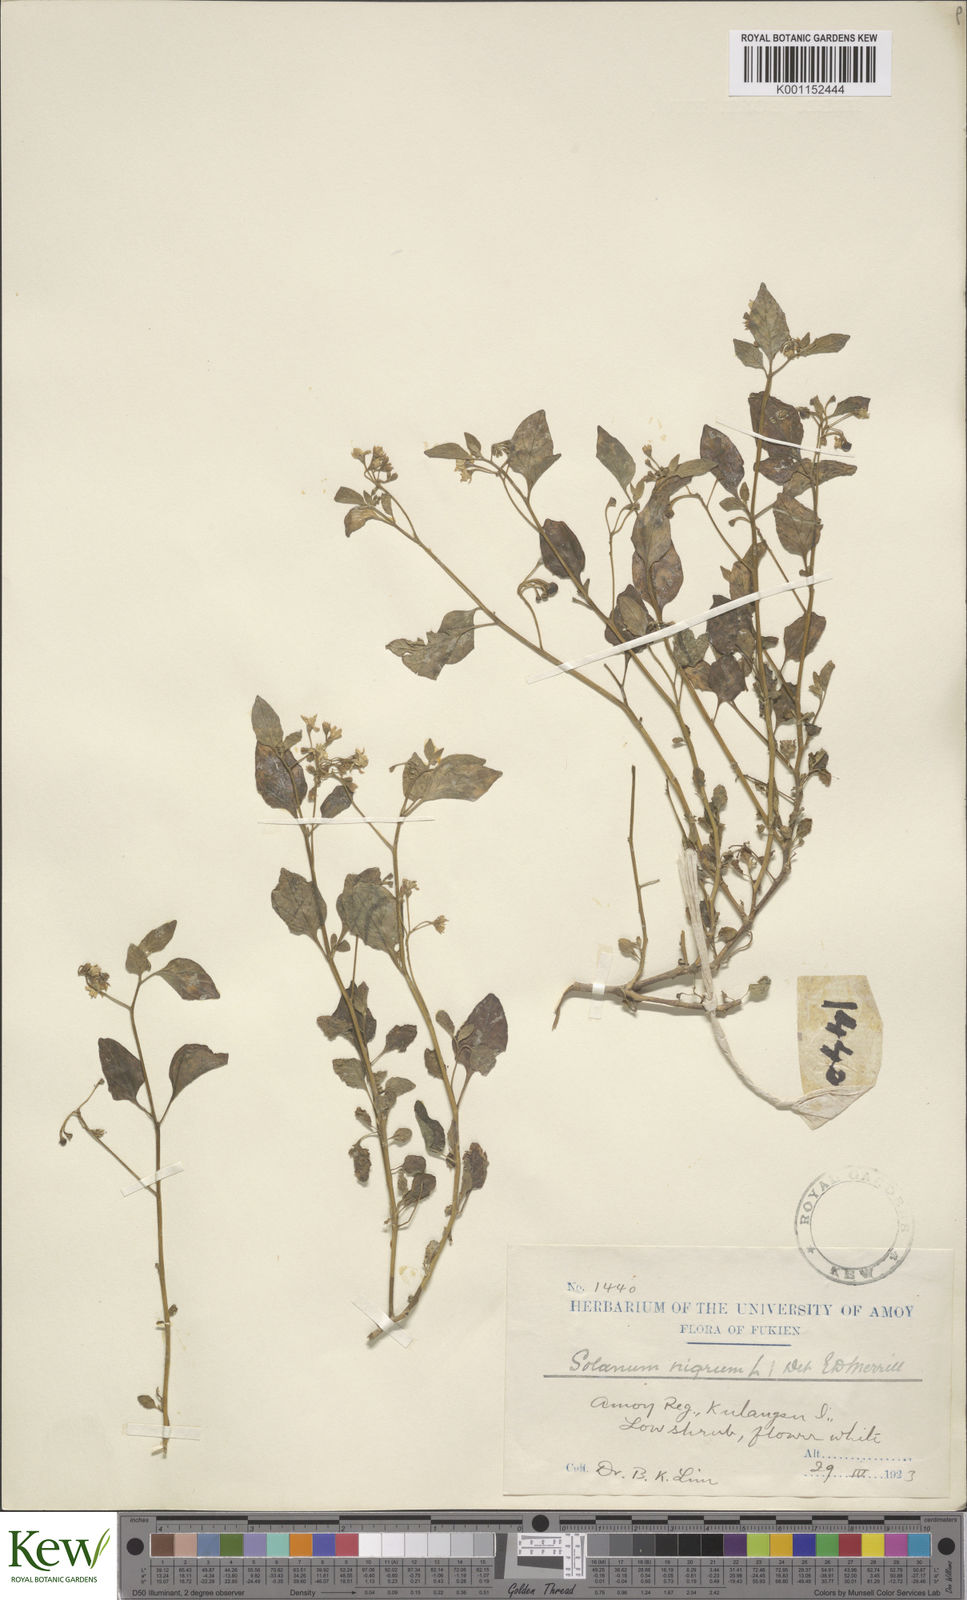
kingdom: Plantae
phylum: Tracheophyta
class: Magnoliopsida
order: Solanales
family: Solanaceae
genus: Solanum
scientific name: Solanum americanum
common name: American black nightshade
